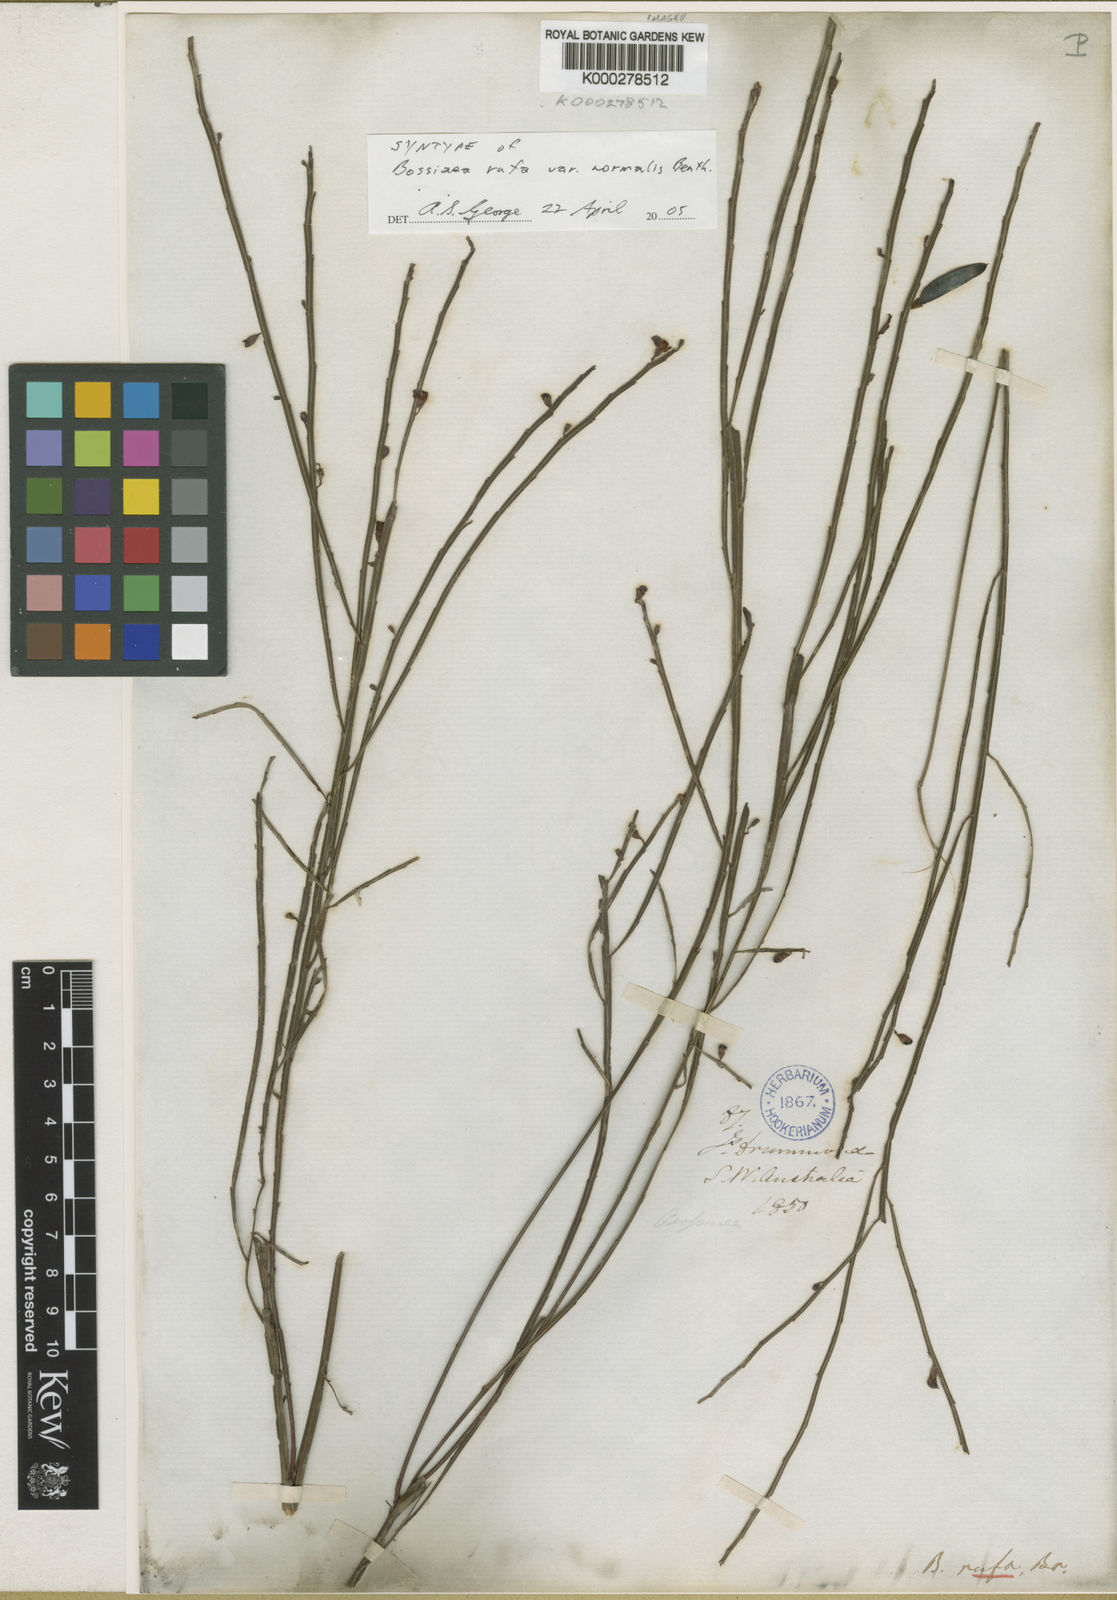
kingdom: Plantae
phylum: Tracheophyta
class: Magnoliopsida
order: Fabales
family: Fabaceae
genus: Bossiaea
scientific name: Bossiaea rufa
